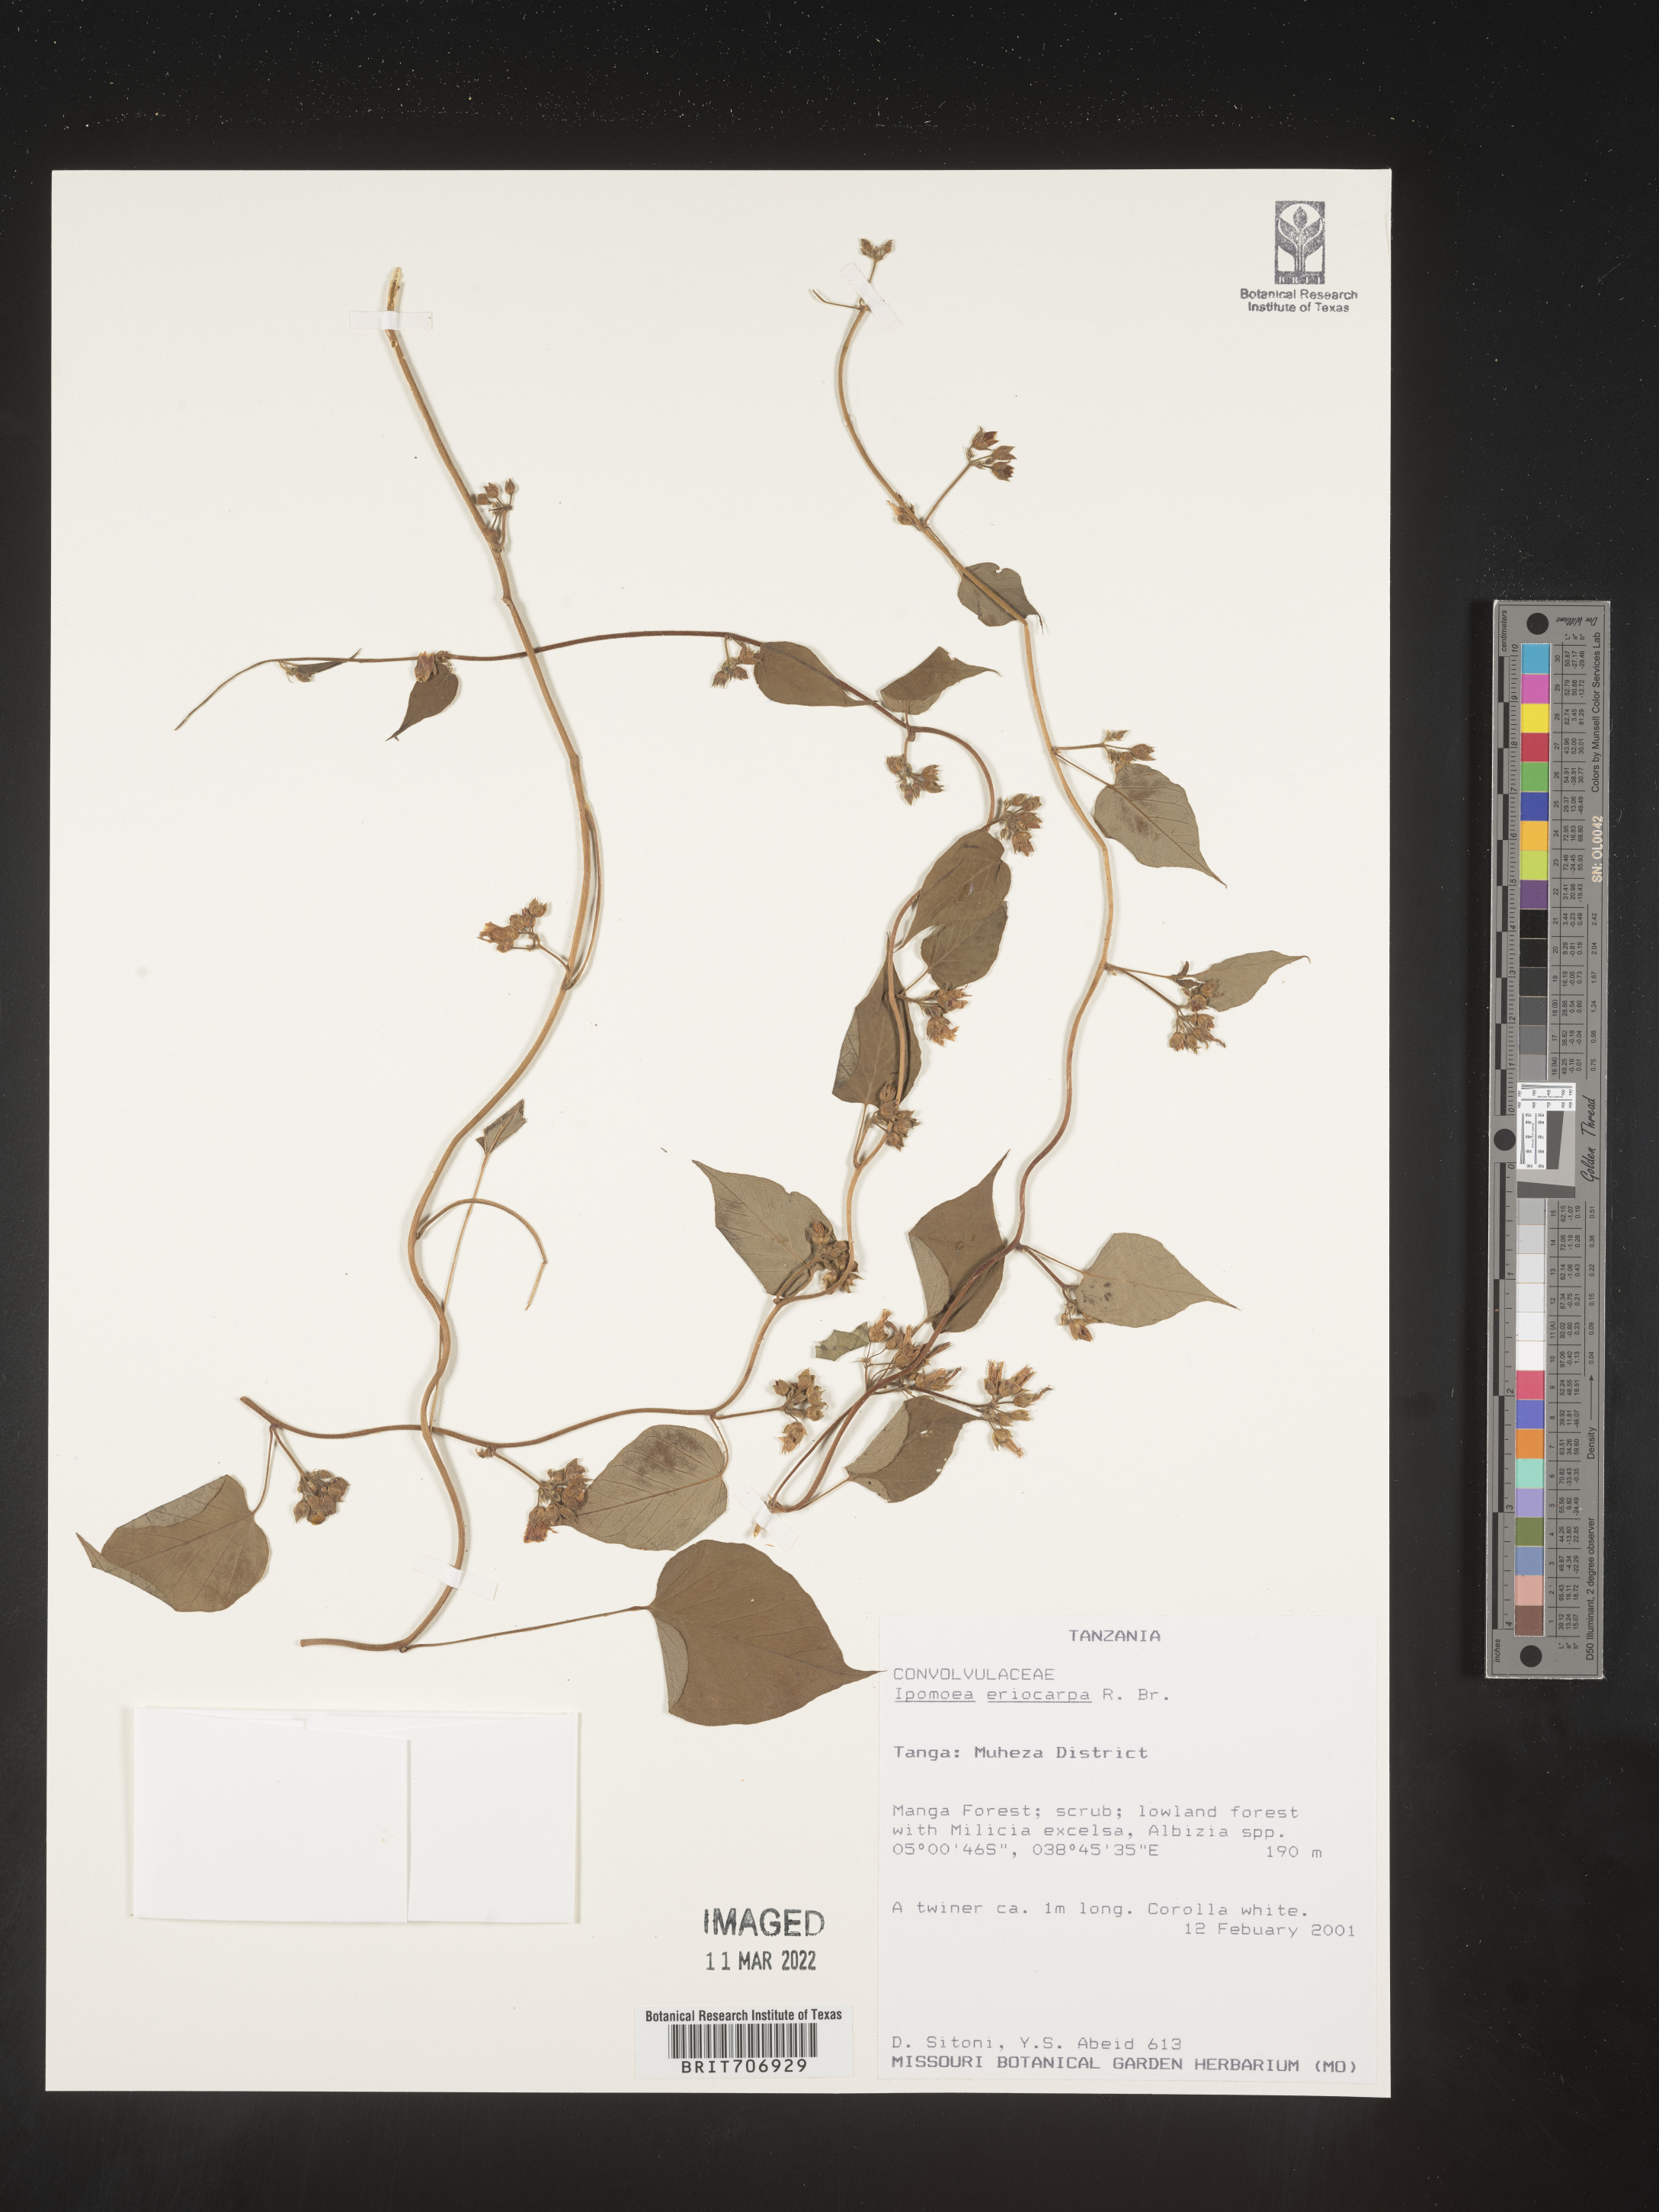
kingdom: Plantae
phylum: Tracheophyta
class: Magnoliopsida
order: Solanales
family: Convolvulaceae
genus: Ipomoea
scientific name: Ipomoea
